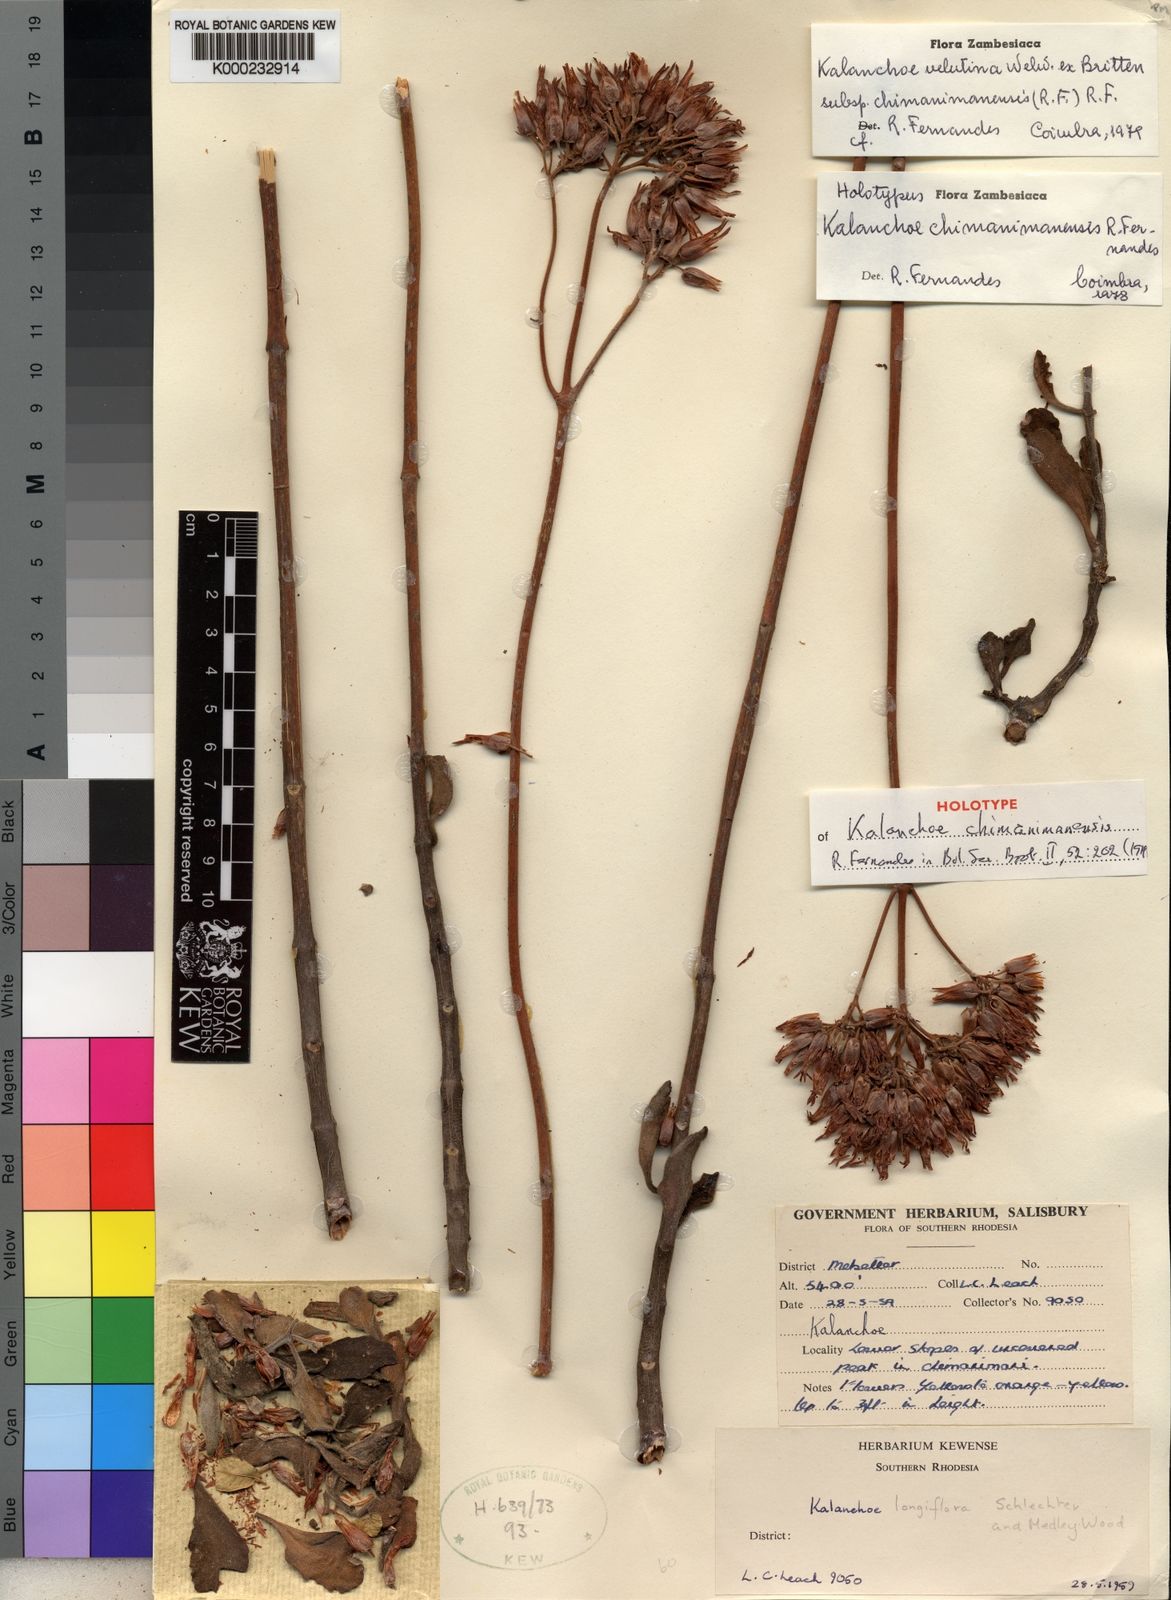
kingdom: Plantae
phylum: Tracheophyta
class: Magnoliopsida
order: Saxifragales
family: Crassulaceae
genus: Kalanchoe
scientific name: Kalanchoe velutina
